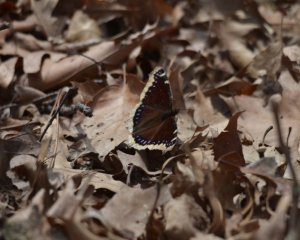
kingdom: Animalia
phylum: Arthropoda
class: Insecta
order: Lepidoptera
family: Nymphalidae
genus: Nymphalis
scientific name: Nymphalis antiopa
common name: Mourning Cloak
